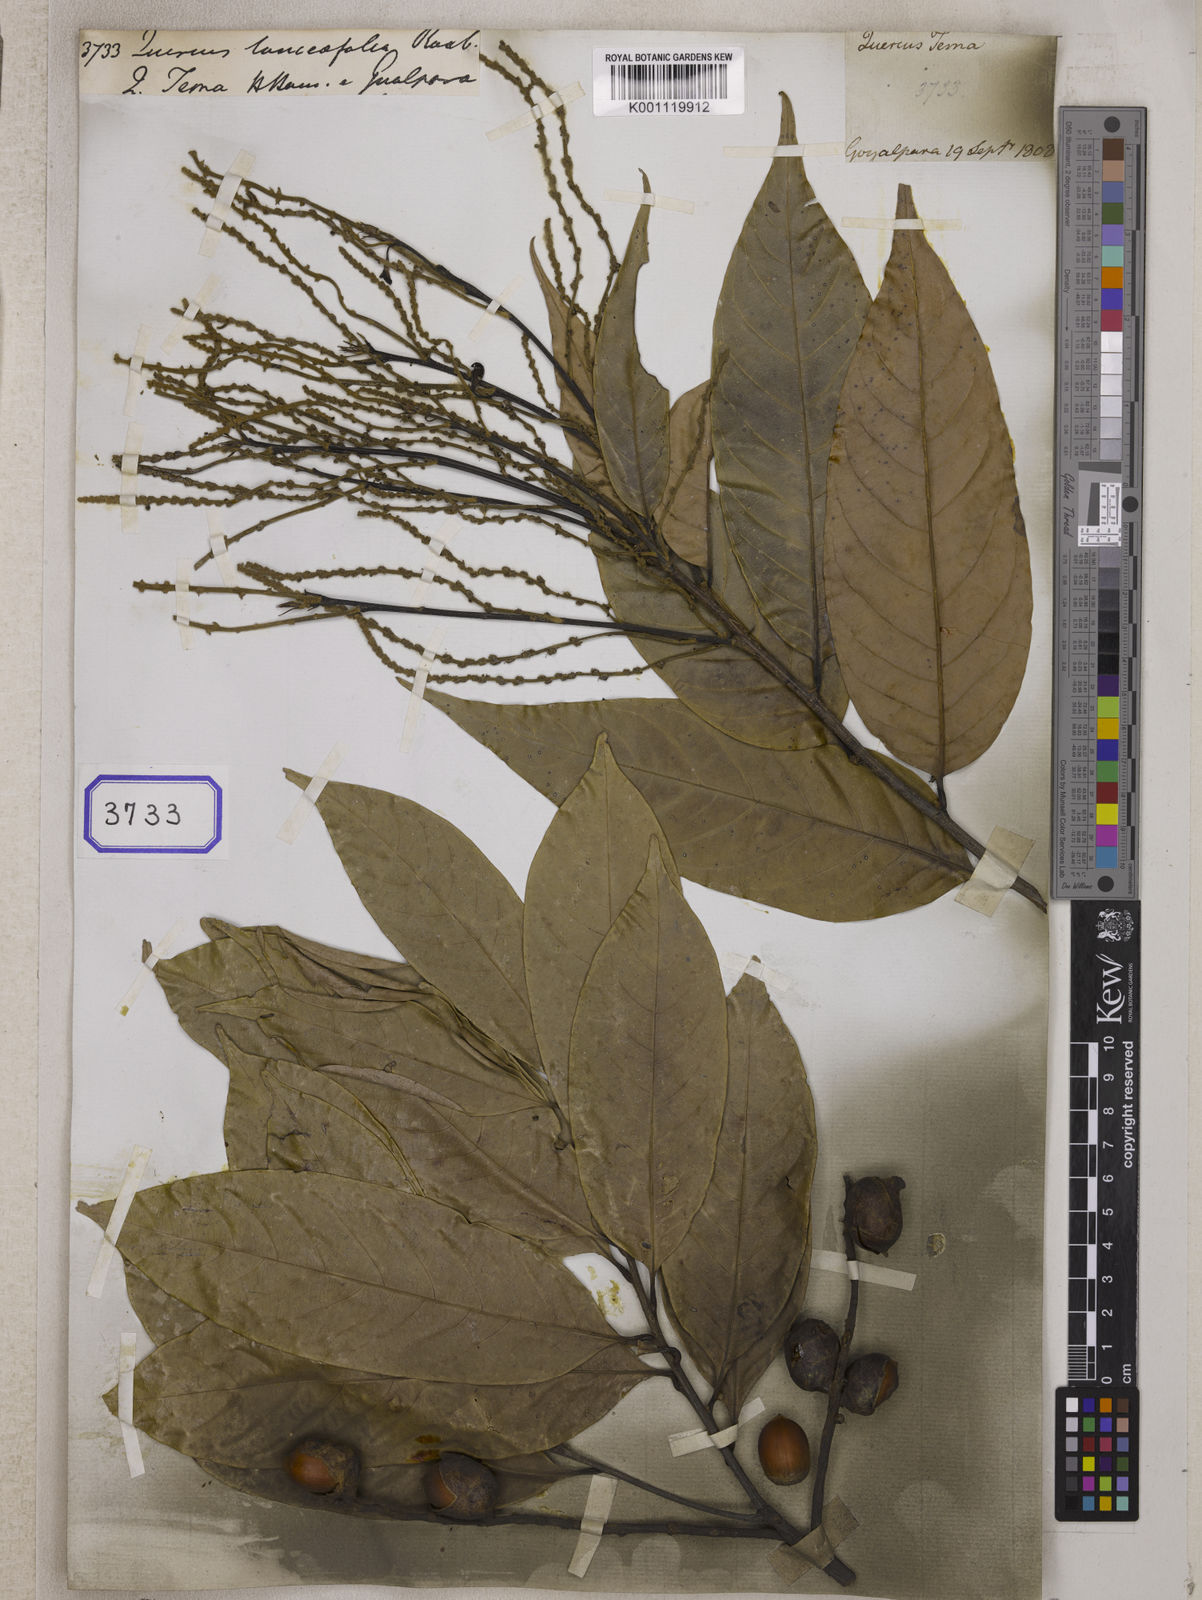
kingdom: Plantae
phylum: Tracheophyta
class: Magnoliopsida
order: Fagales
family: Fagaceae
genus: Castanopsis
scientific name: Castanopsis lanceifolia
